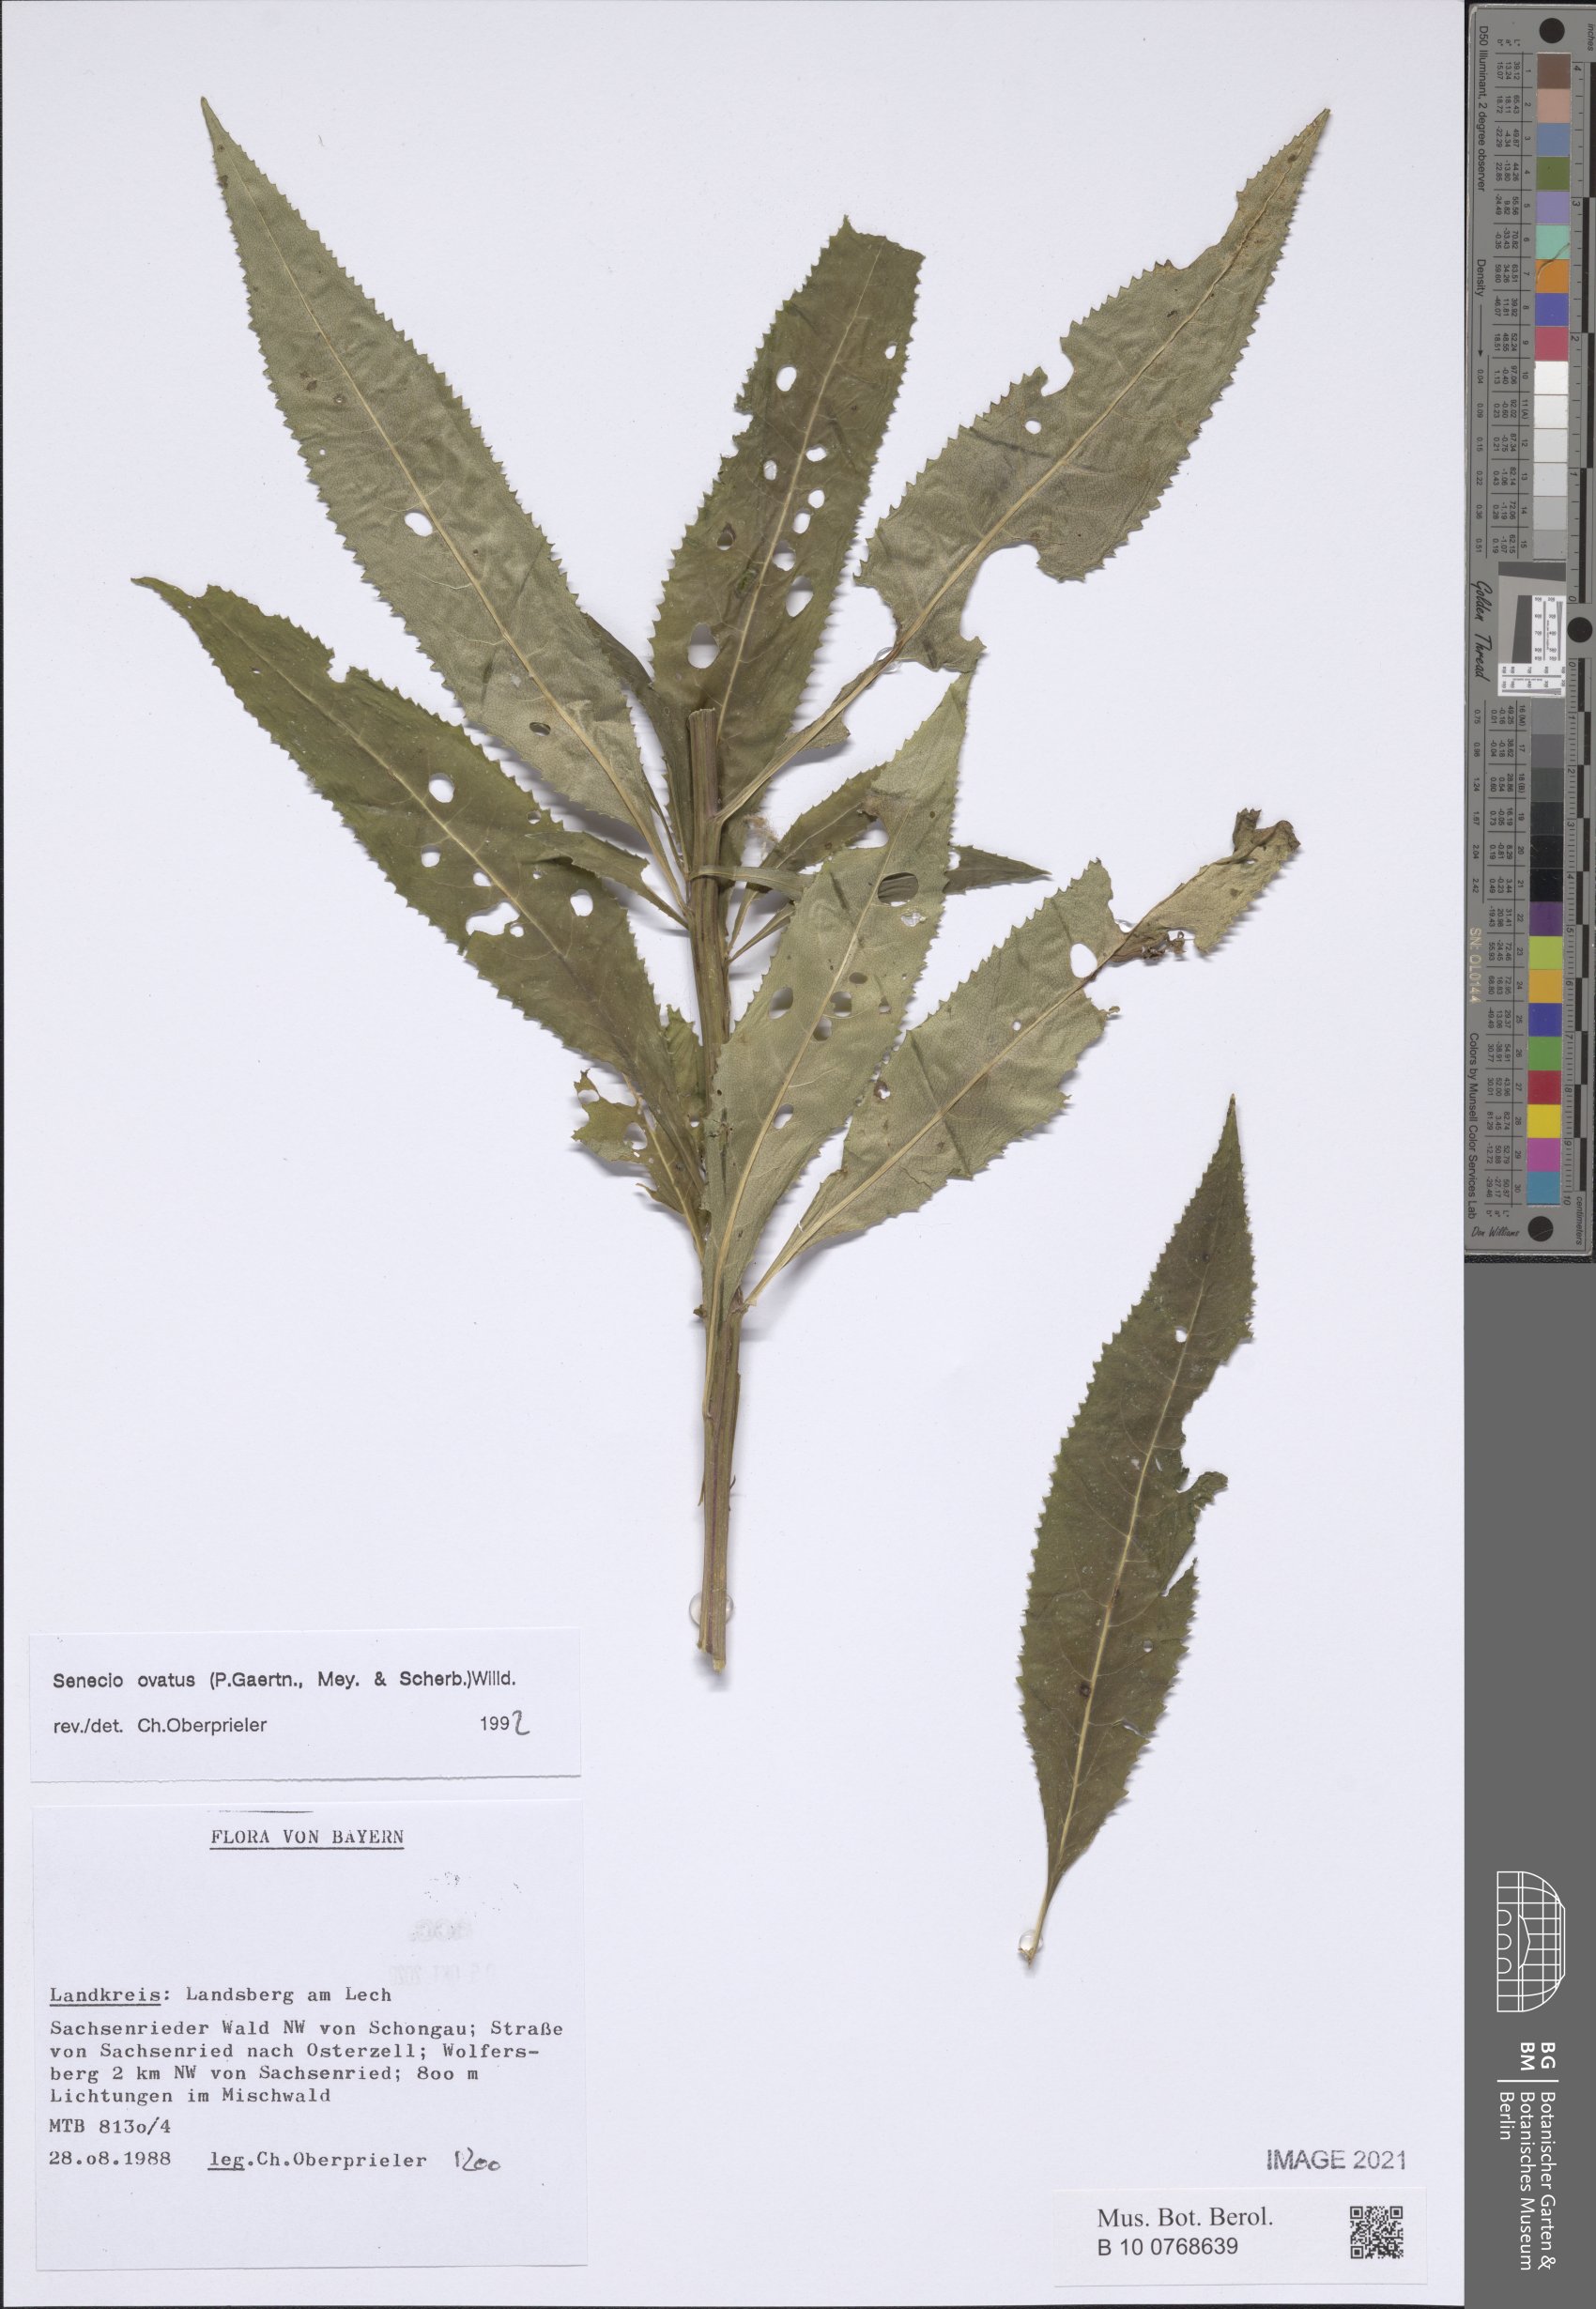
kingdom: Plantae
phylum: Tracheophyta
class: Magnoliopsida
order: Asterales
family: Asteraceae
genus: Senecio
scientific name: Senecio ovatus
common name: Wood ragwort
